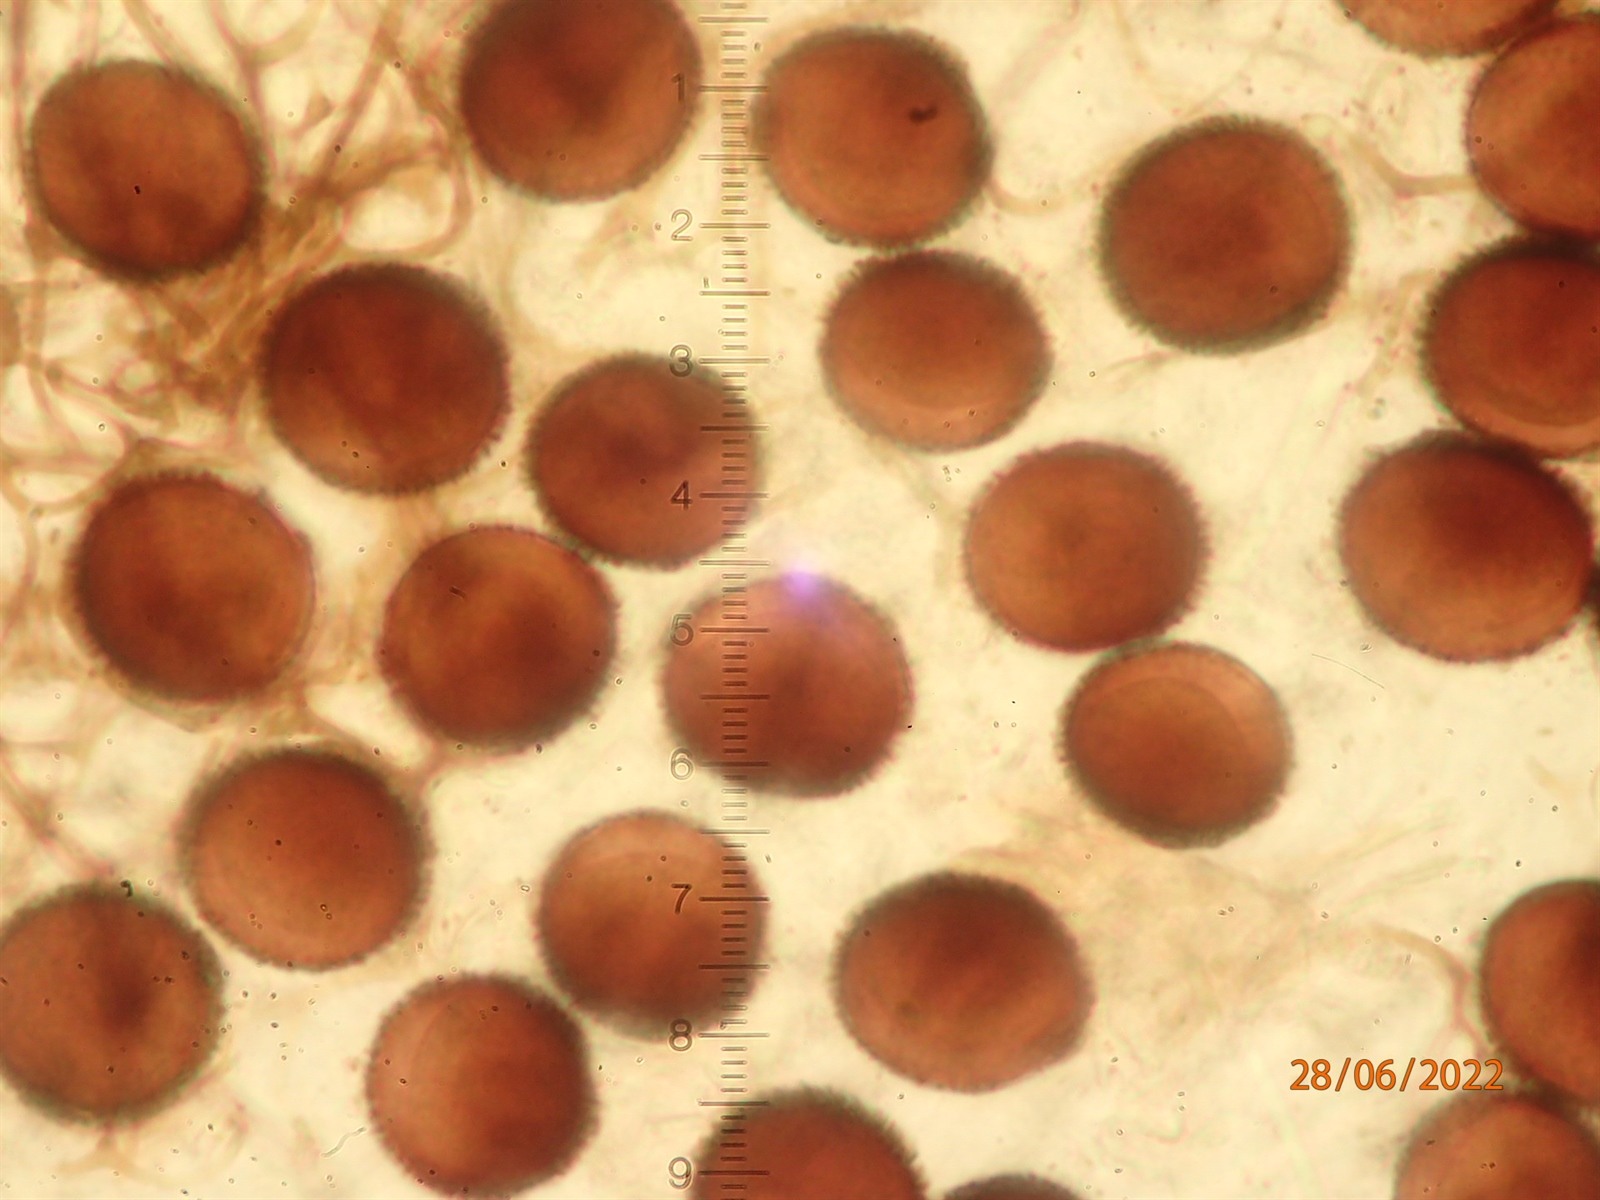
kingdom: Protozoa
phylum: Mycetozoa
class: Myxomycetes
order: Stemonitidales
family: Stemonitidaceae
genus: Lamproderma
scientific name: Lamproderma ovoideoechinulatum
